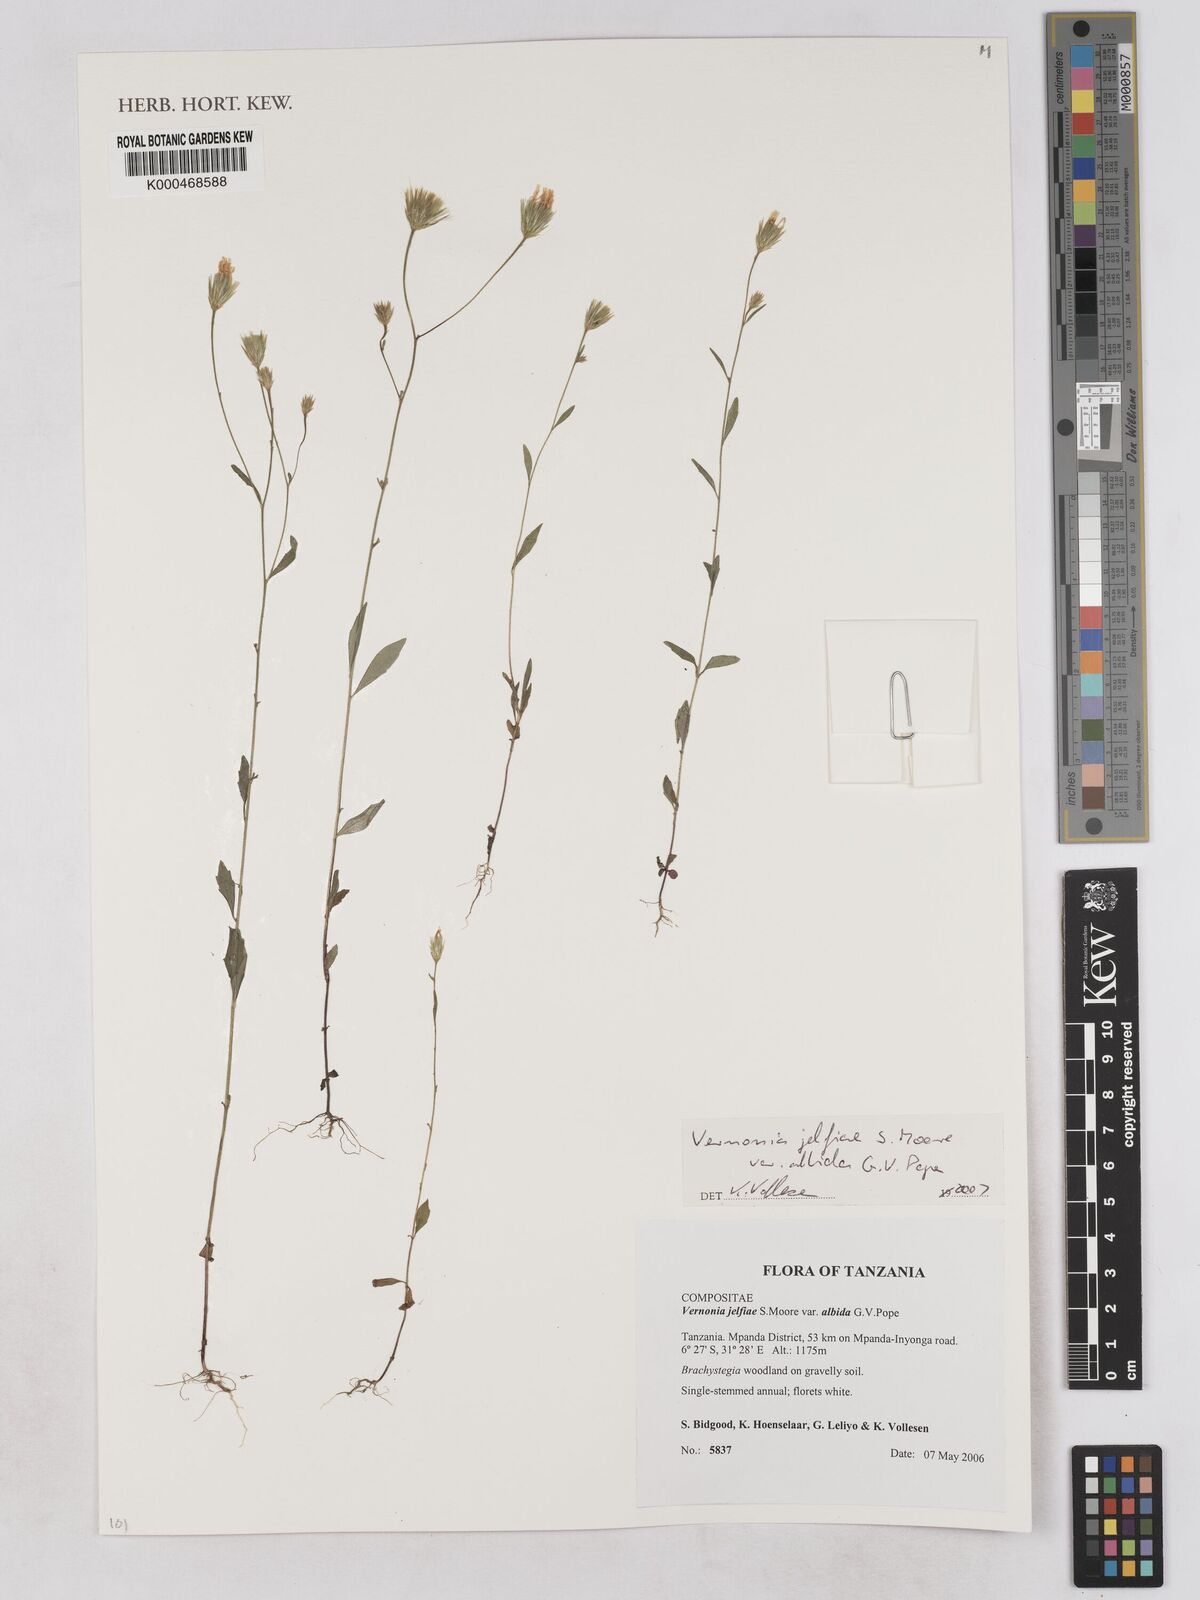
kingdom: Plantae
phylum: Tracheophyta
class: Magnoliopsida
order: Asterales
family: Asteraceae
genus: Crystallopollen
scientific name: Crystallopollen jelfiae
